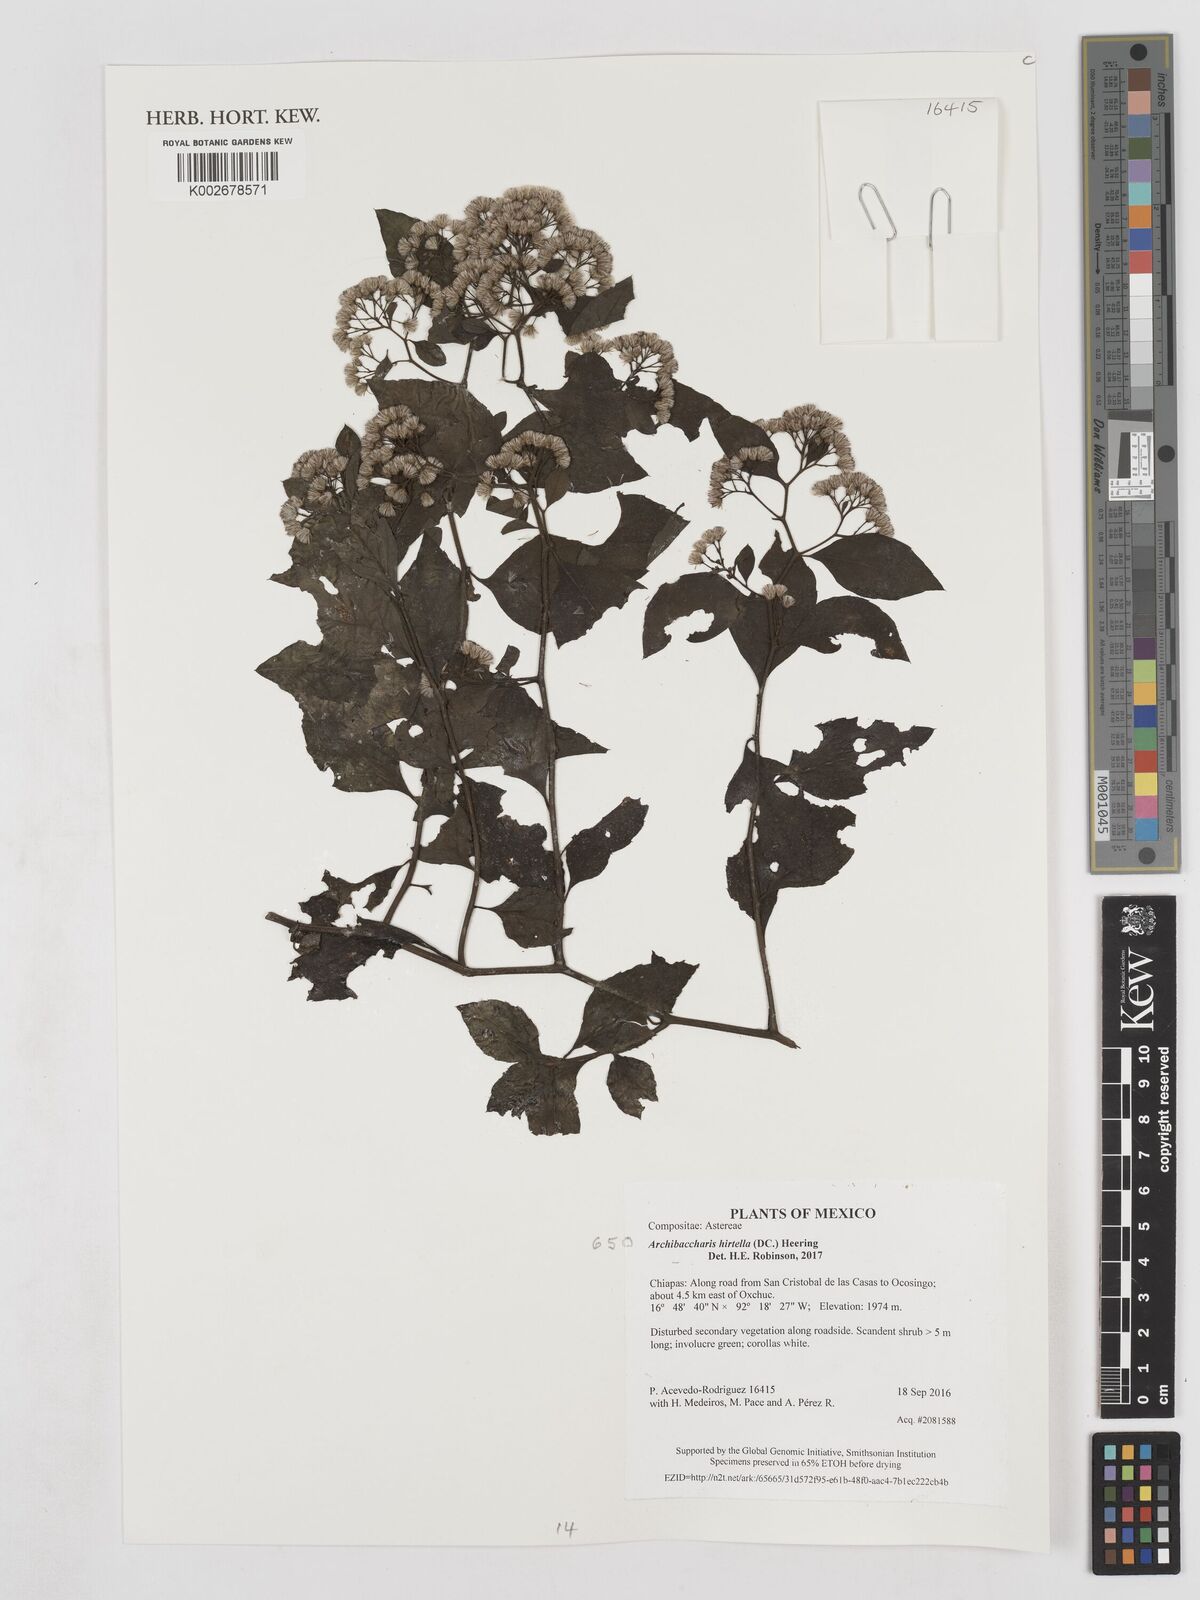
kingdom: Plantae
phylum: Tracheophyta
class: Magnoliopsida
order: Asterales
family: Asteraceae
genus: Archibaccharis
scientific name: Archibaccharis hirtella
